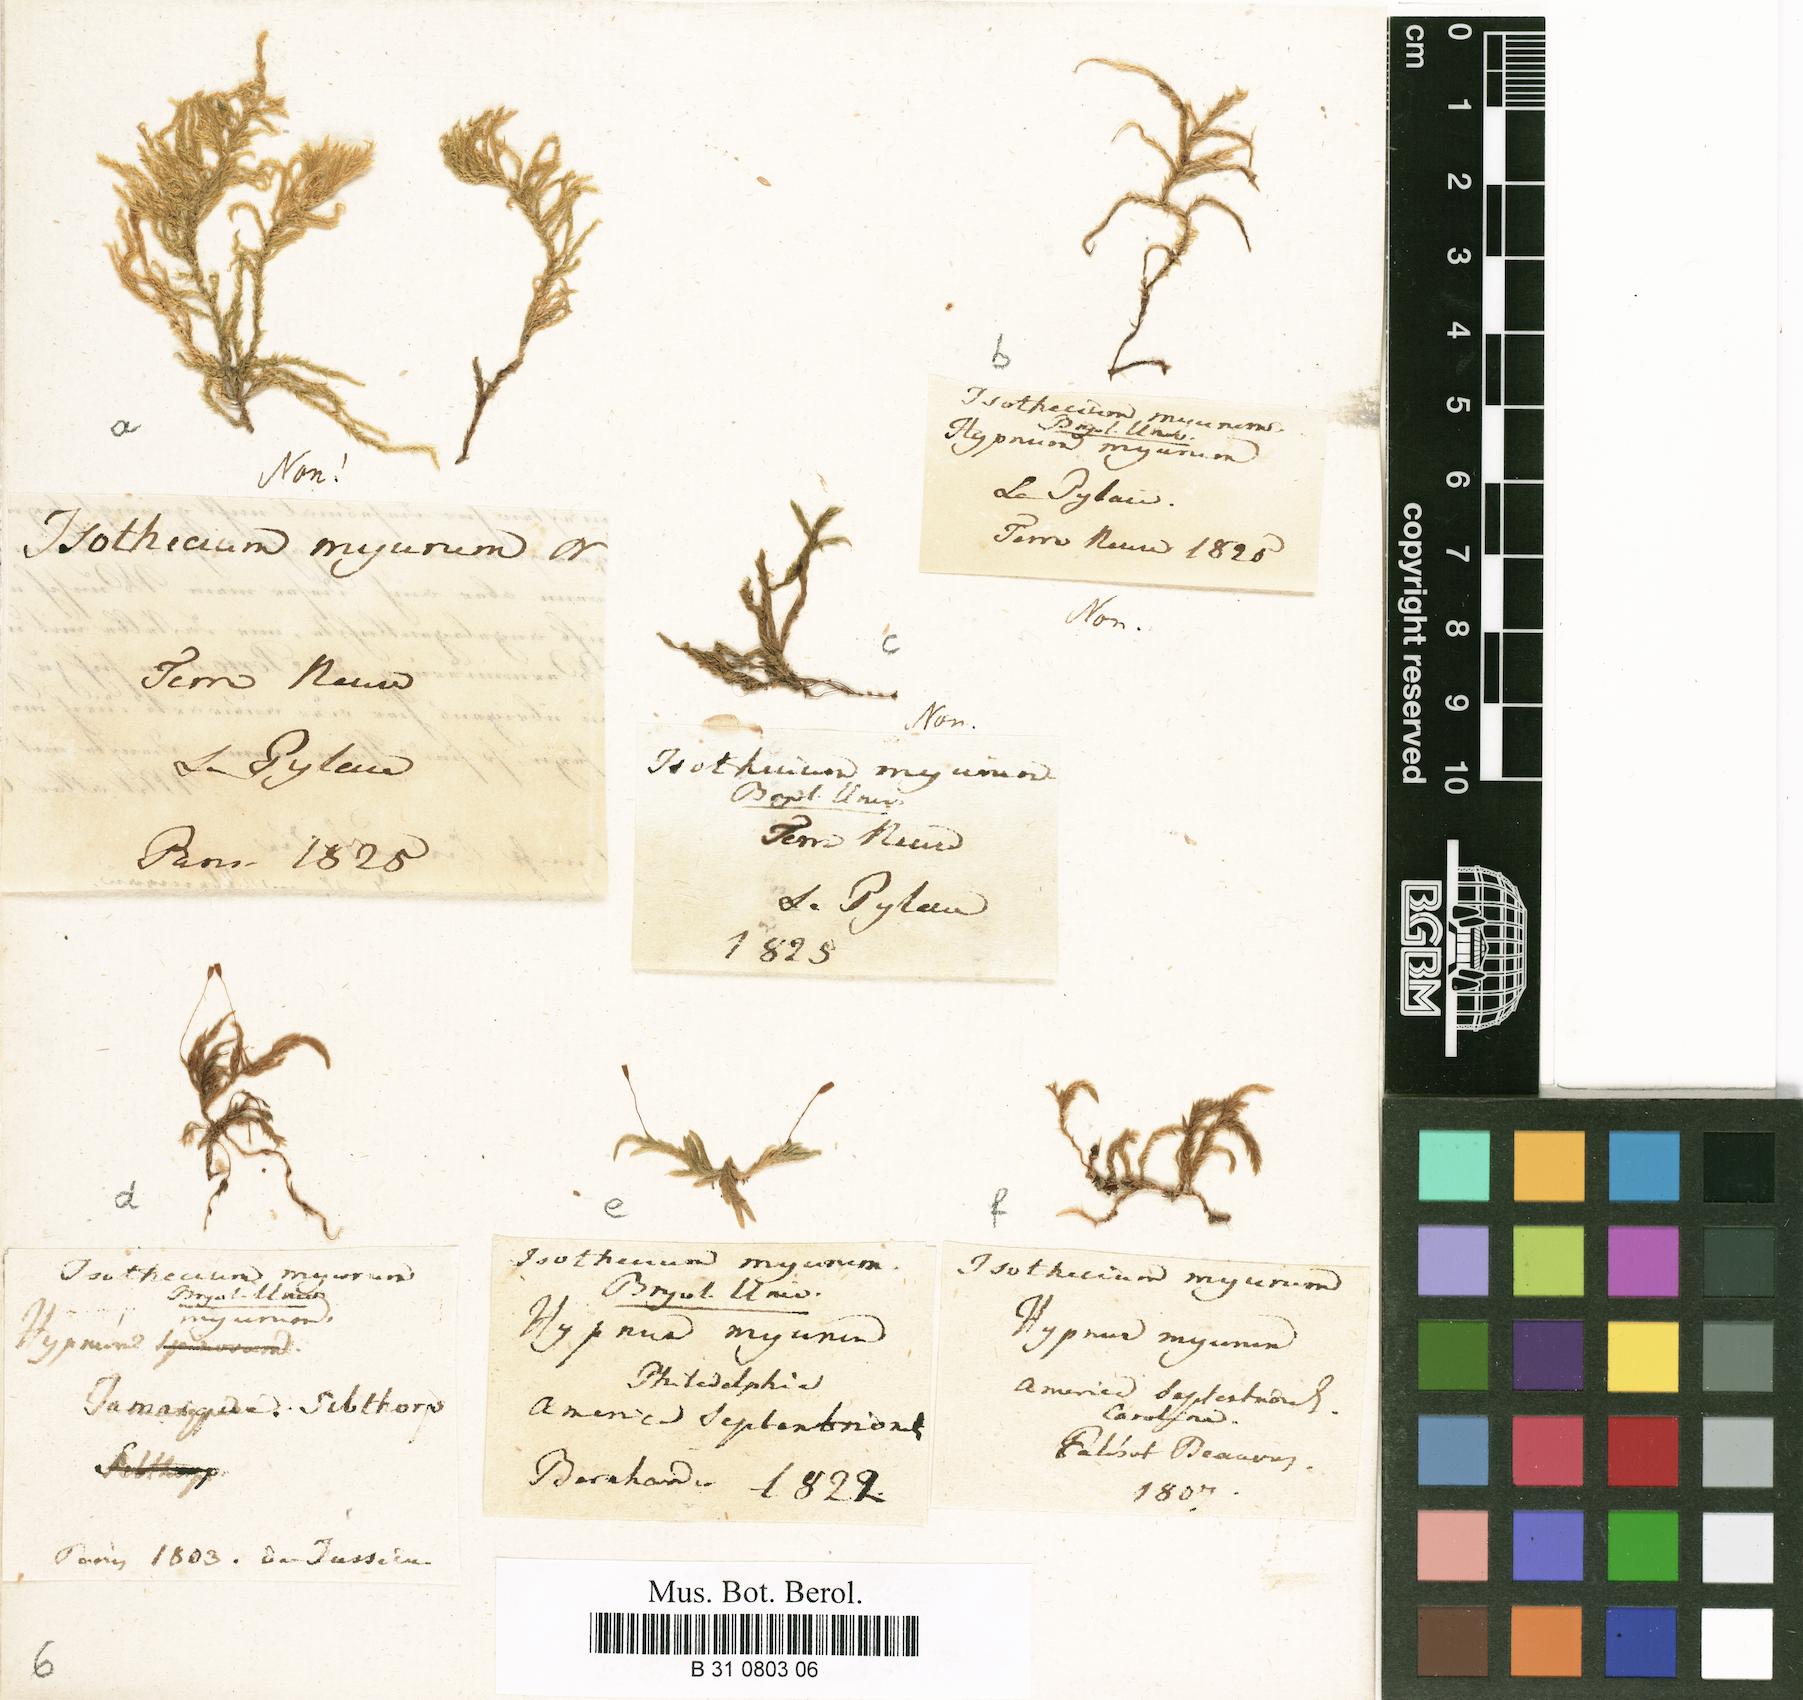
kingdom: Plantae
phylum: Bryophyta
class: Bryopsida
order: Hypnales
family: Lembophyllaceae
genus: Isothecium
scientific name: Isothecium alopecuroides
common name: Larger mouse-tail moss
